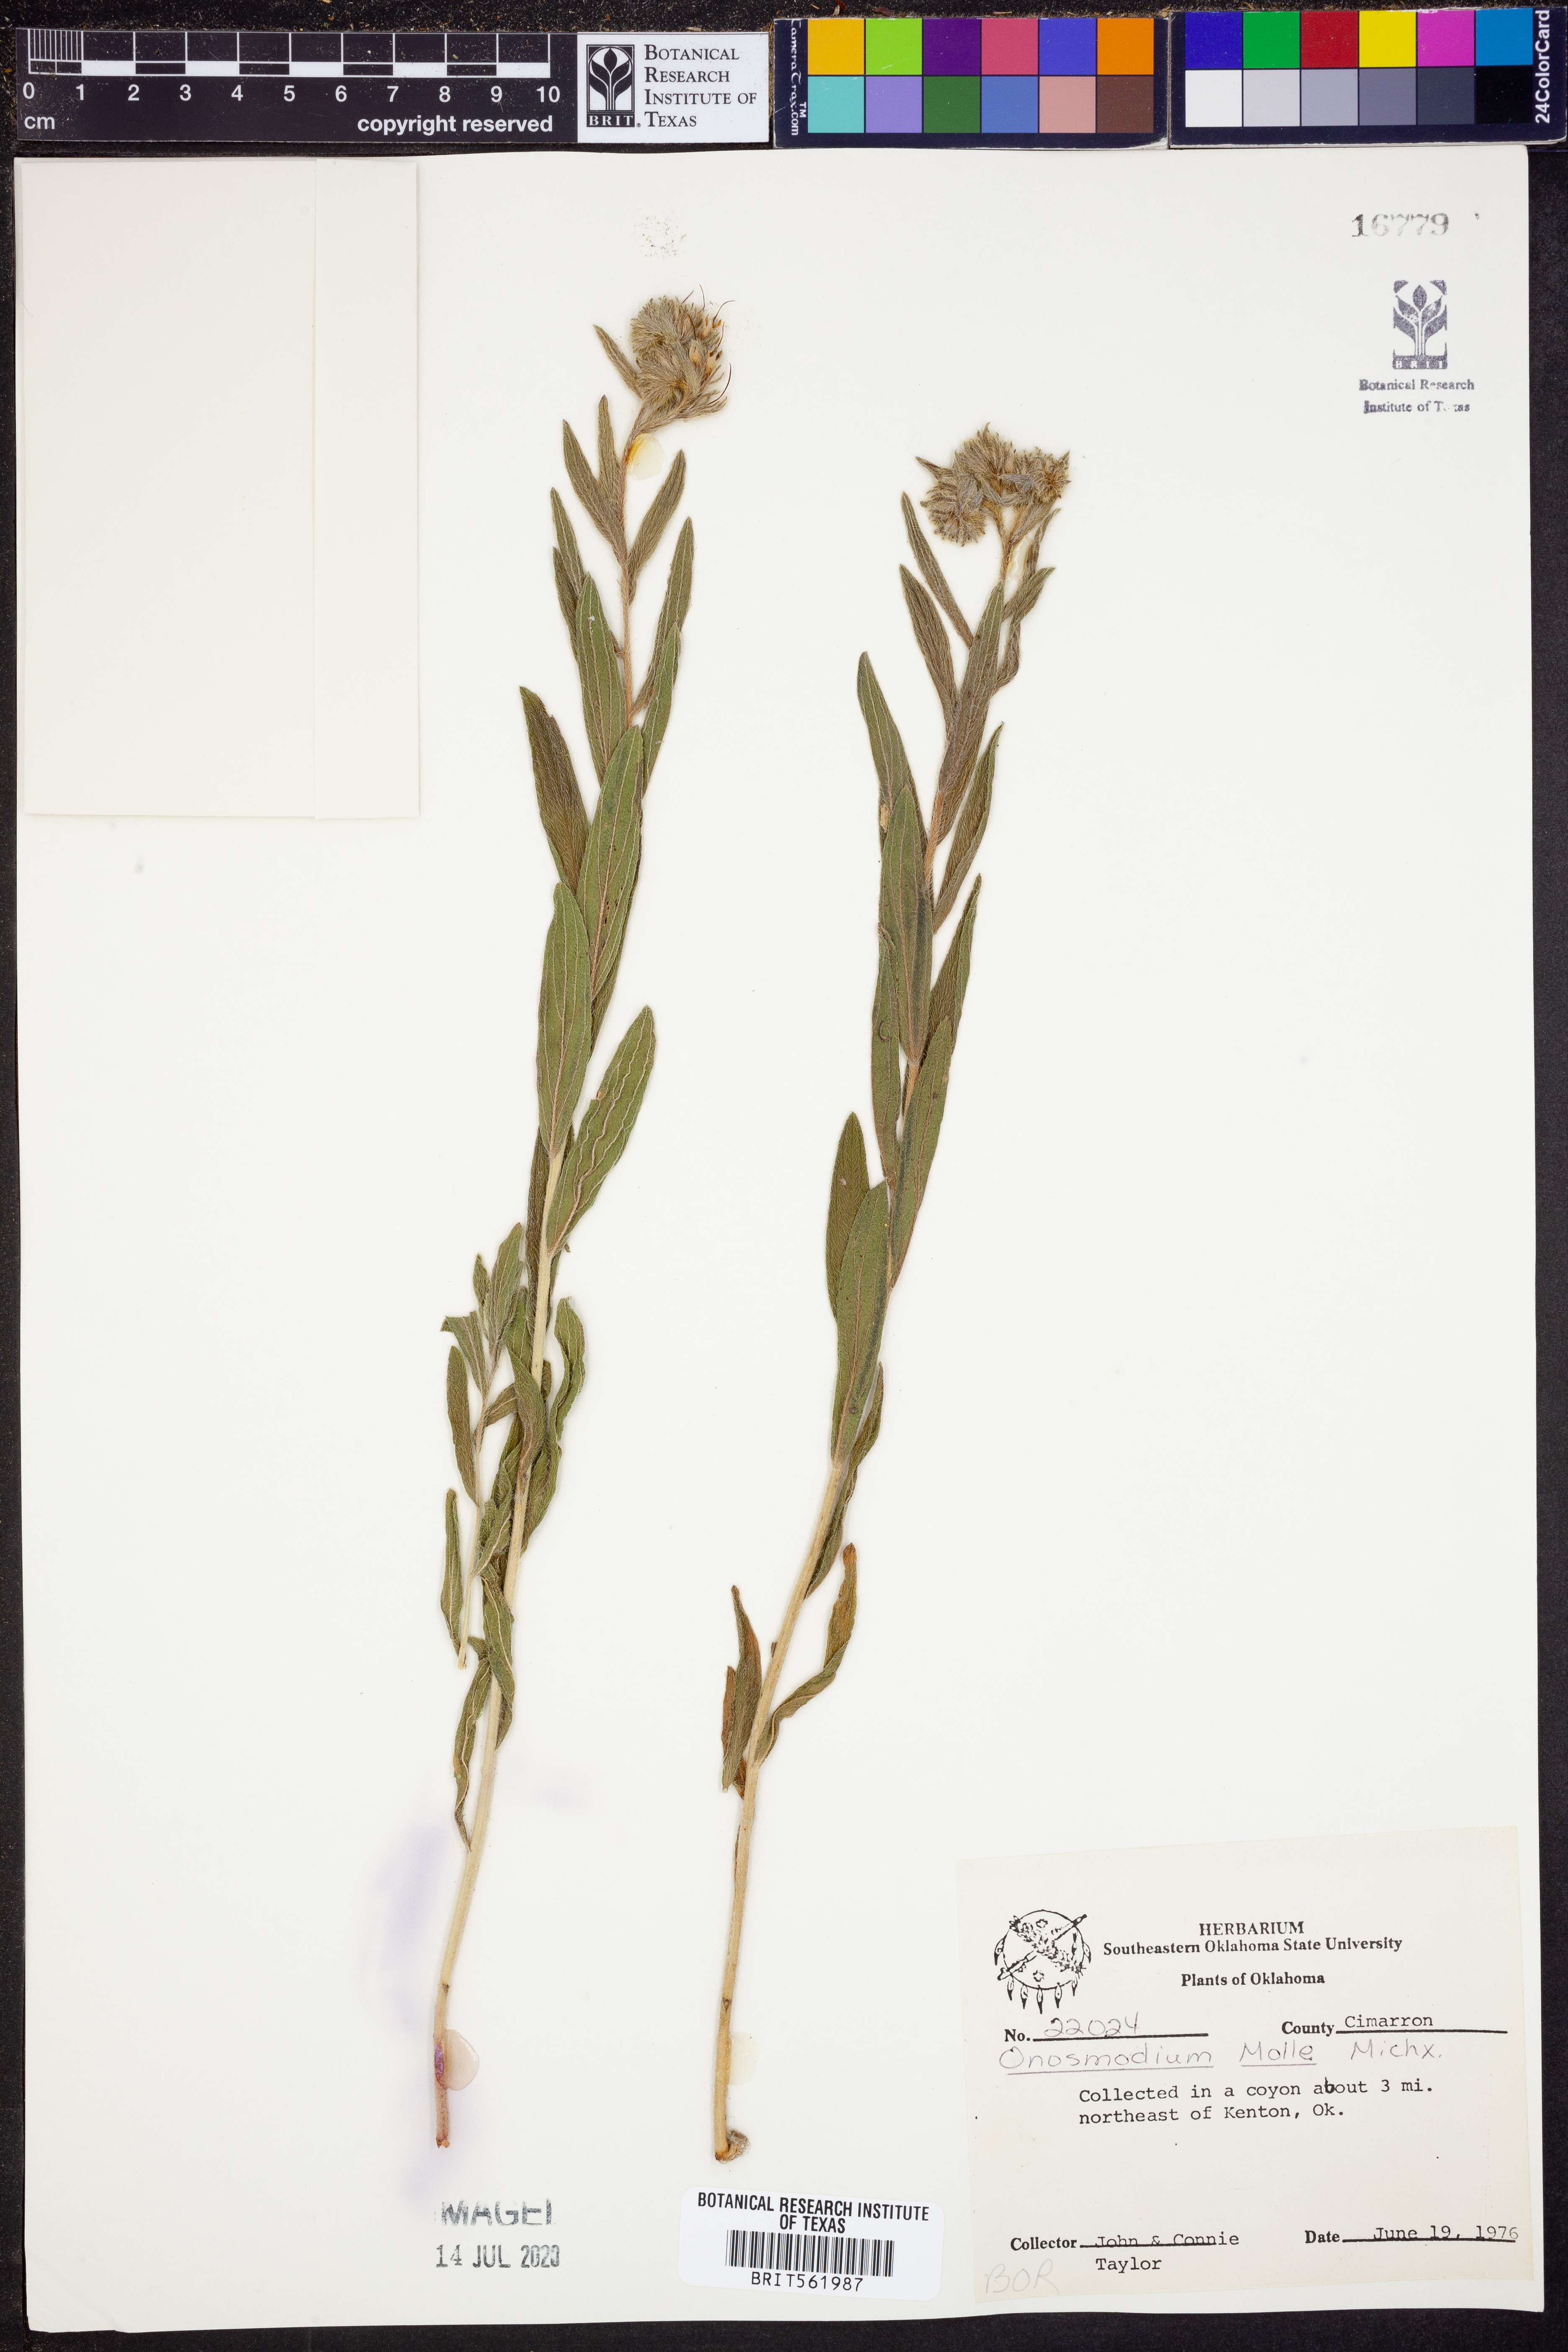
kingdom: Plantae
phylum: Tracheophyta
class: Magnoliopsida
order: Boraginales
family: Boraginaceae
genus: Lithospermum
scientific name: Lithospermum molle
